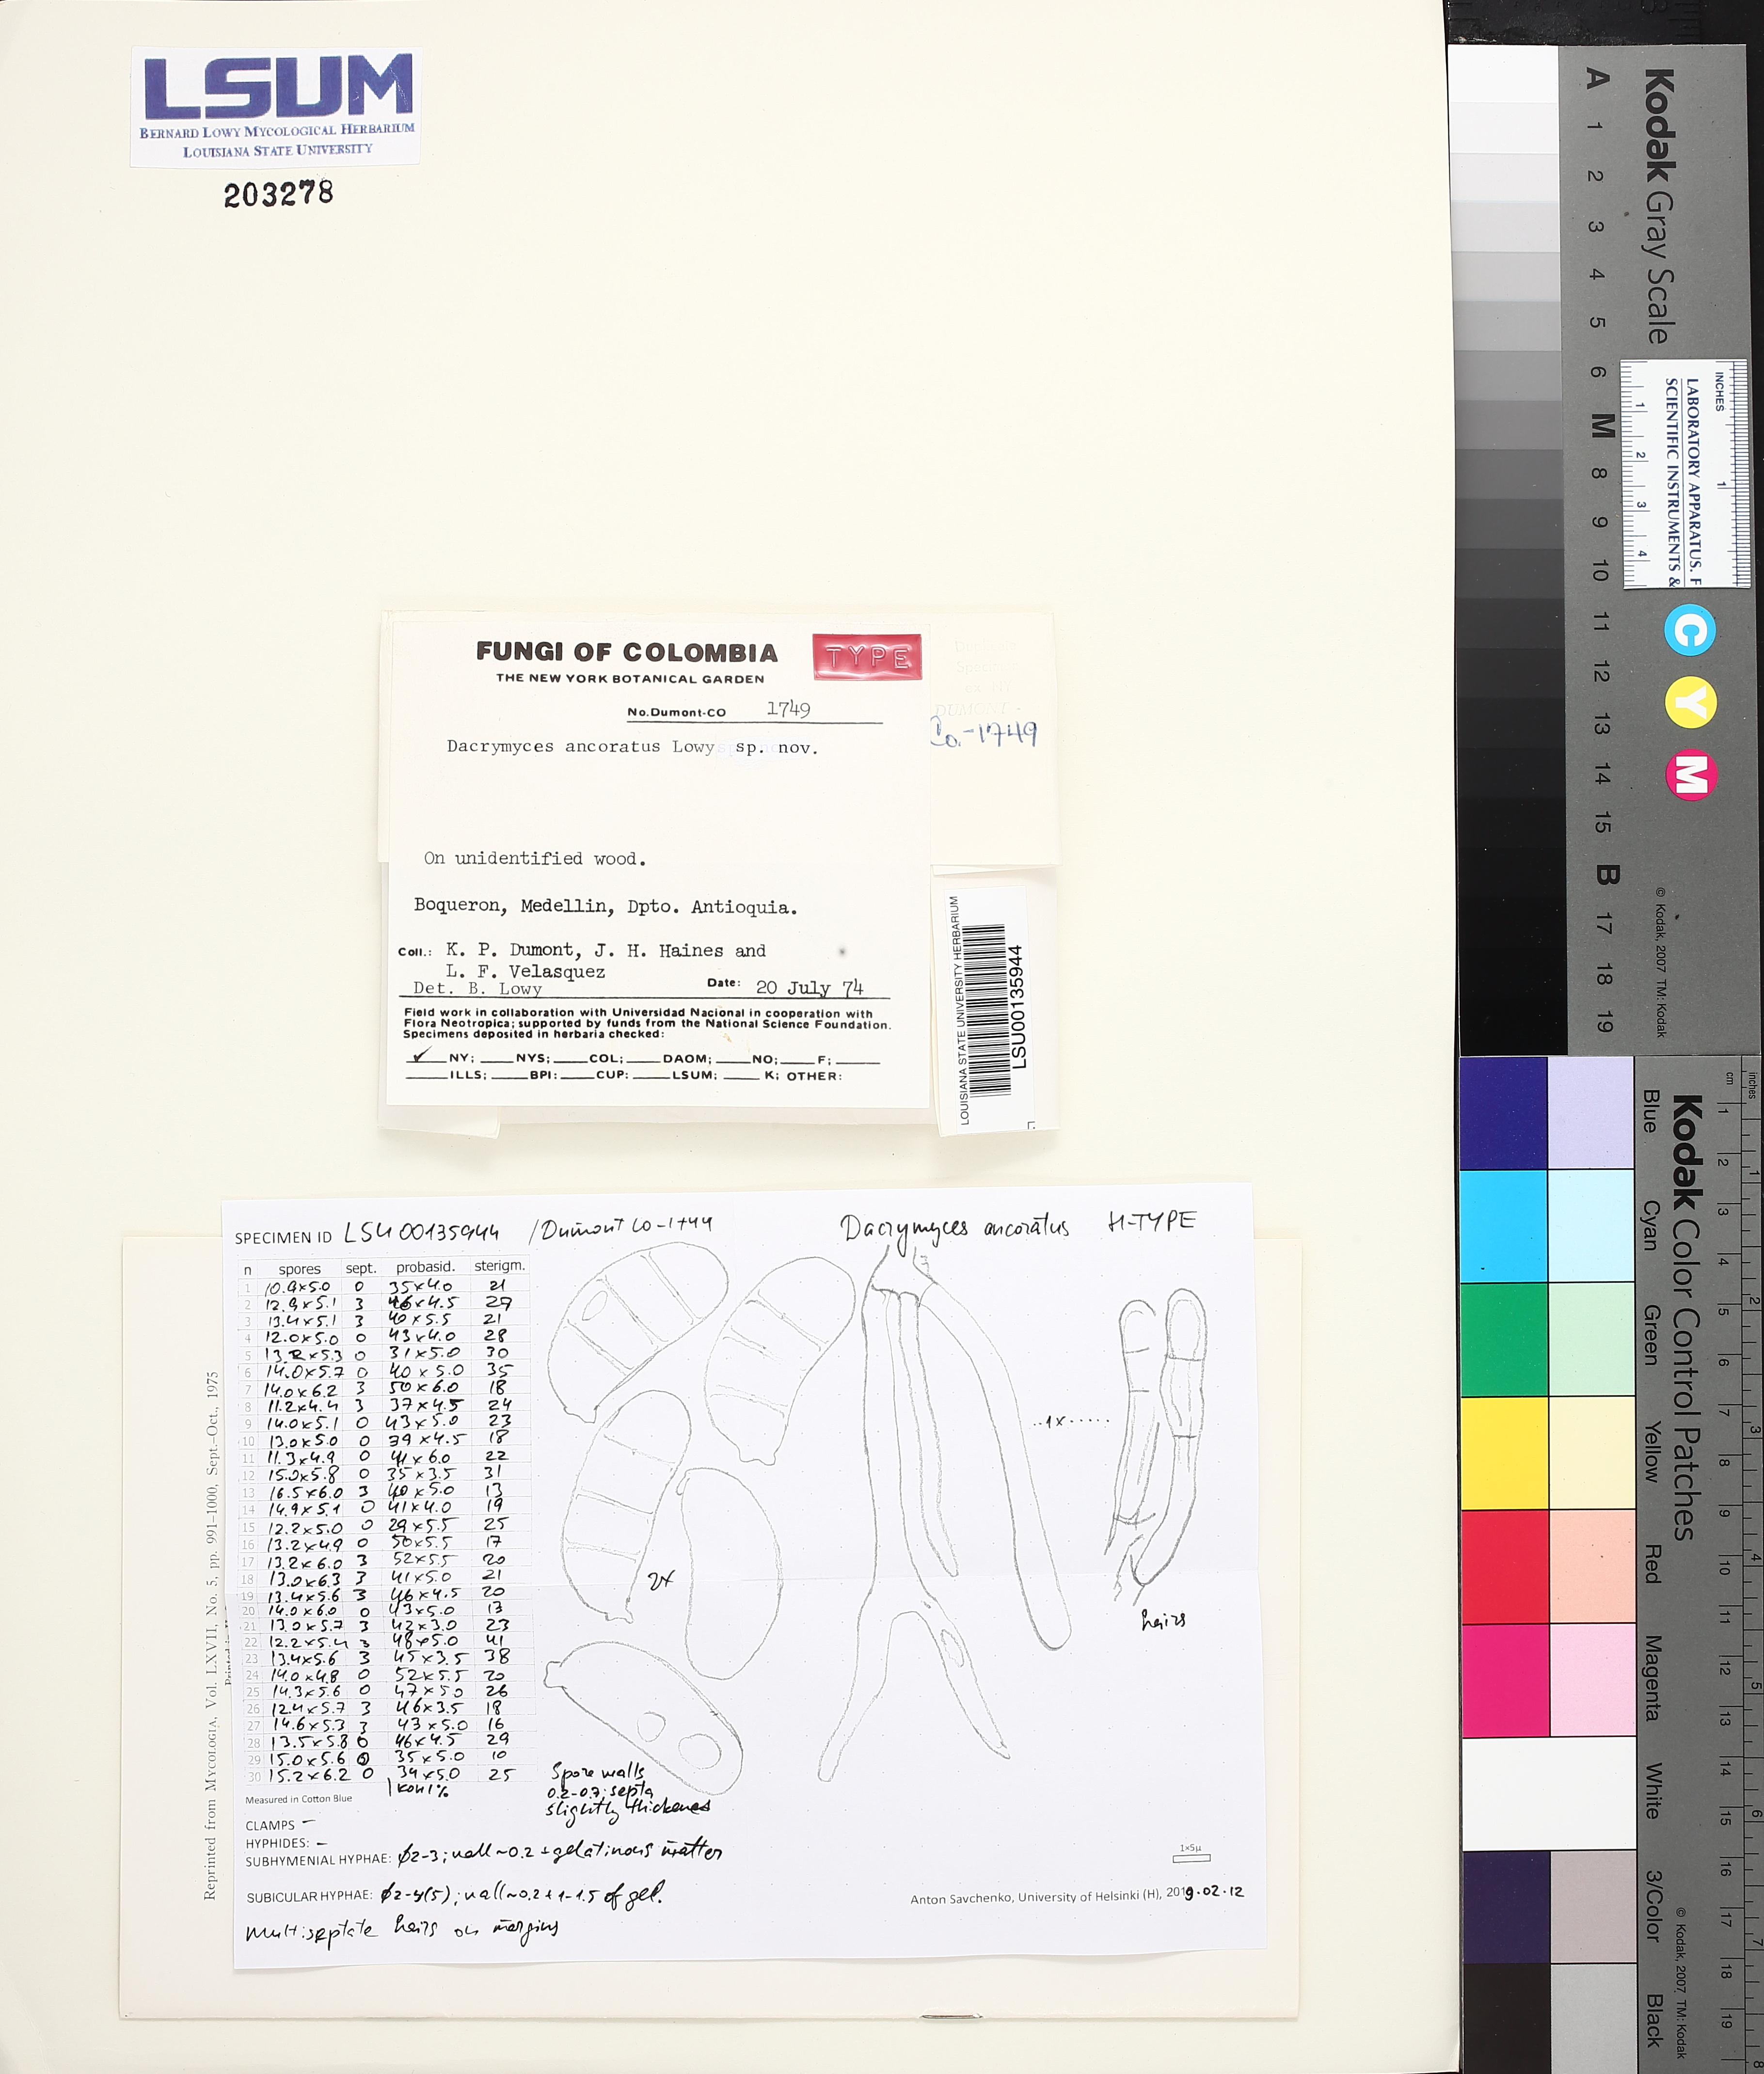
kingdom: Fungi
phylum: Basidiomycota
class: Dacrymycetes
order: Dacrymycetales
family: Dacrymycetaceae
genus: Dacrymyces
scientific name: Dacrymyces ancoratus
